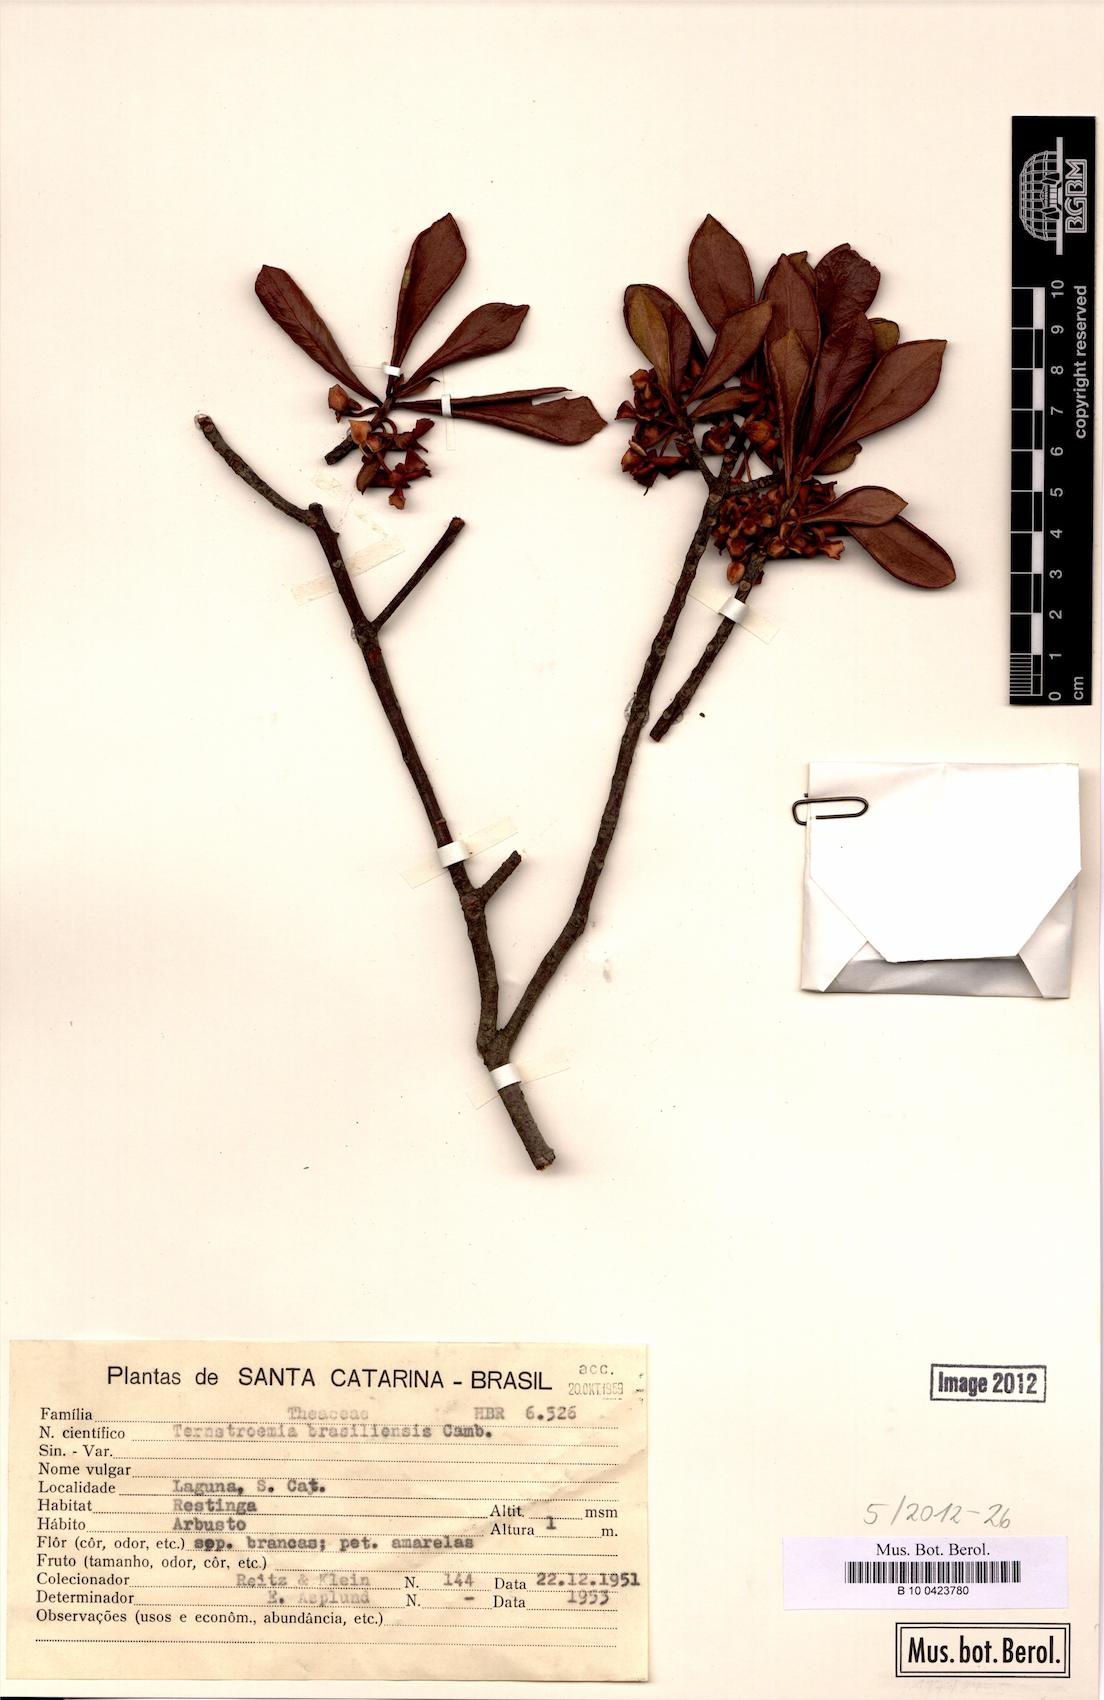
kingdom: Plantae
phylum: Tracheophyta
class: Magnoliopsida
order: Ericales
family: Pentaphylacaceae
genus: Ternstroemia
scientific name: Ternstroemia brasiliensis
